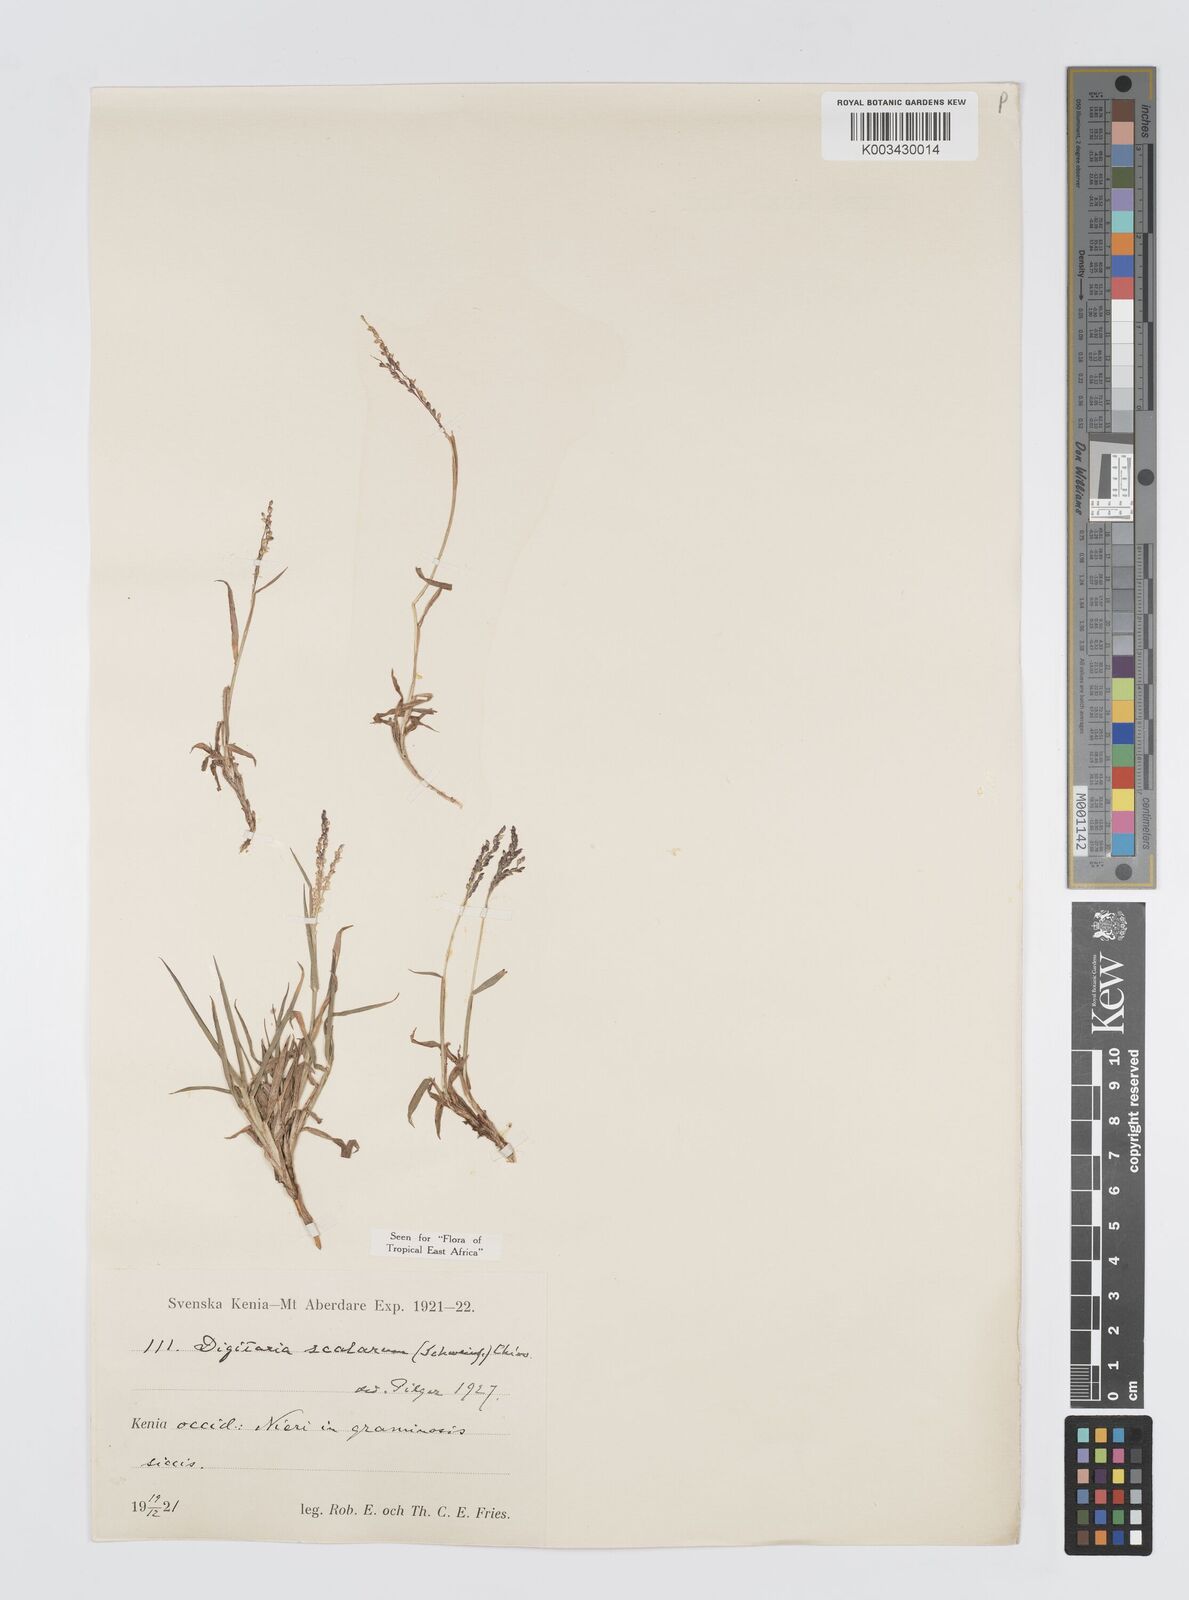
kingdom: Plantae
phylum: Tracheophyta
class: Liliopsida
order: Poales
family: Poaceae
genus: Digitaria
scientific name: Digitaria abyssinica
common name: African couchgrass
